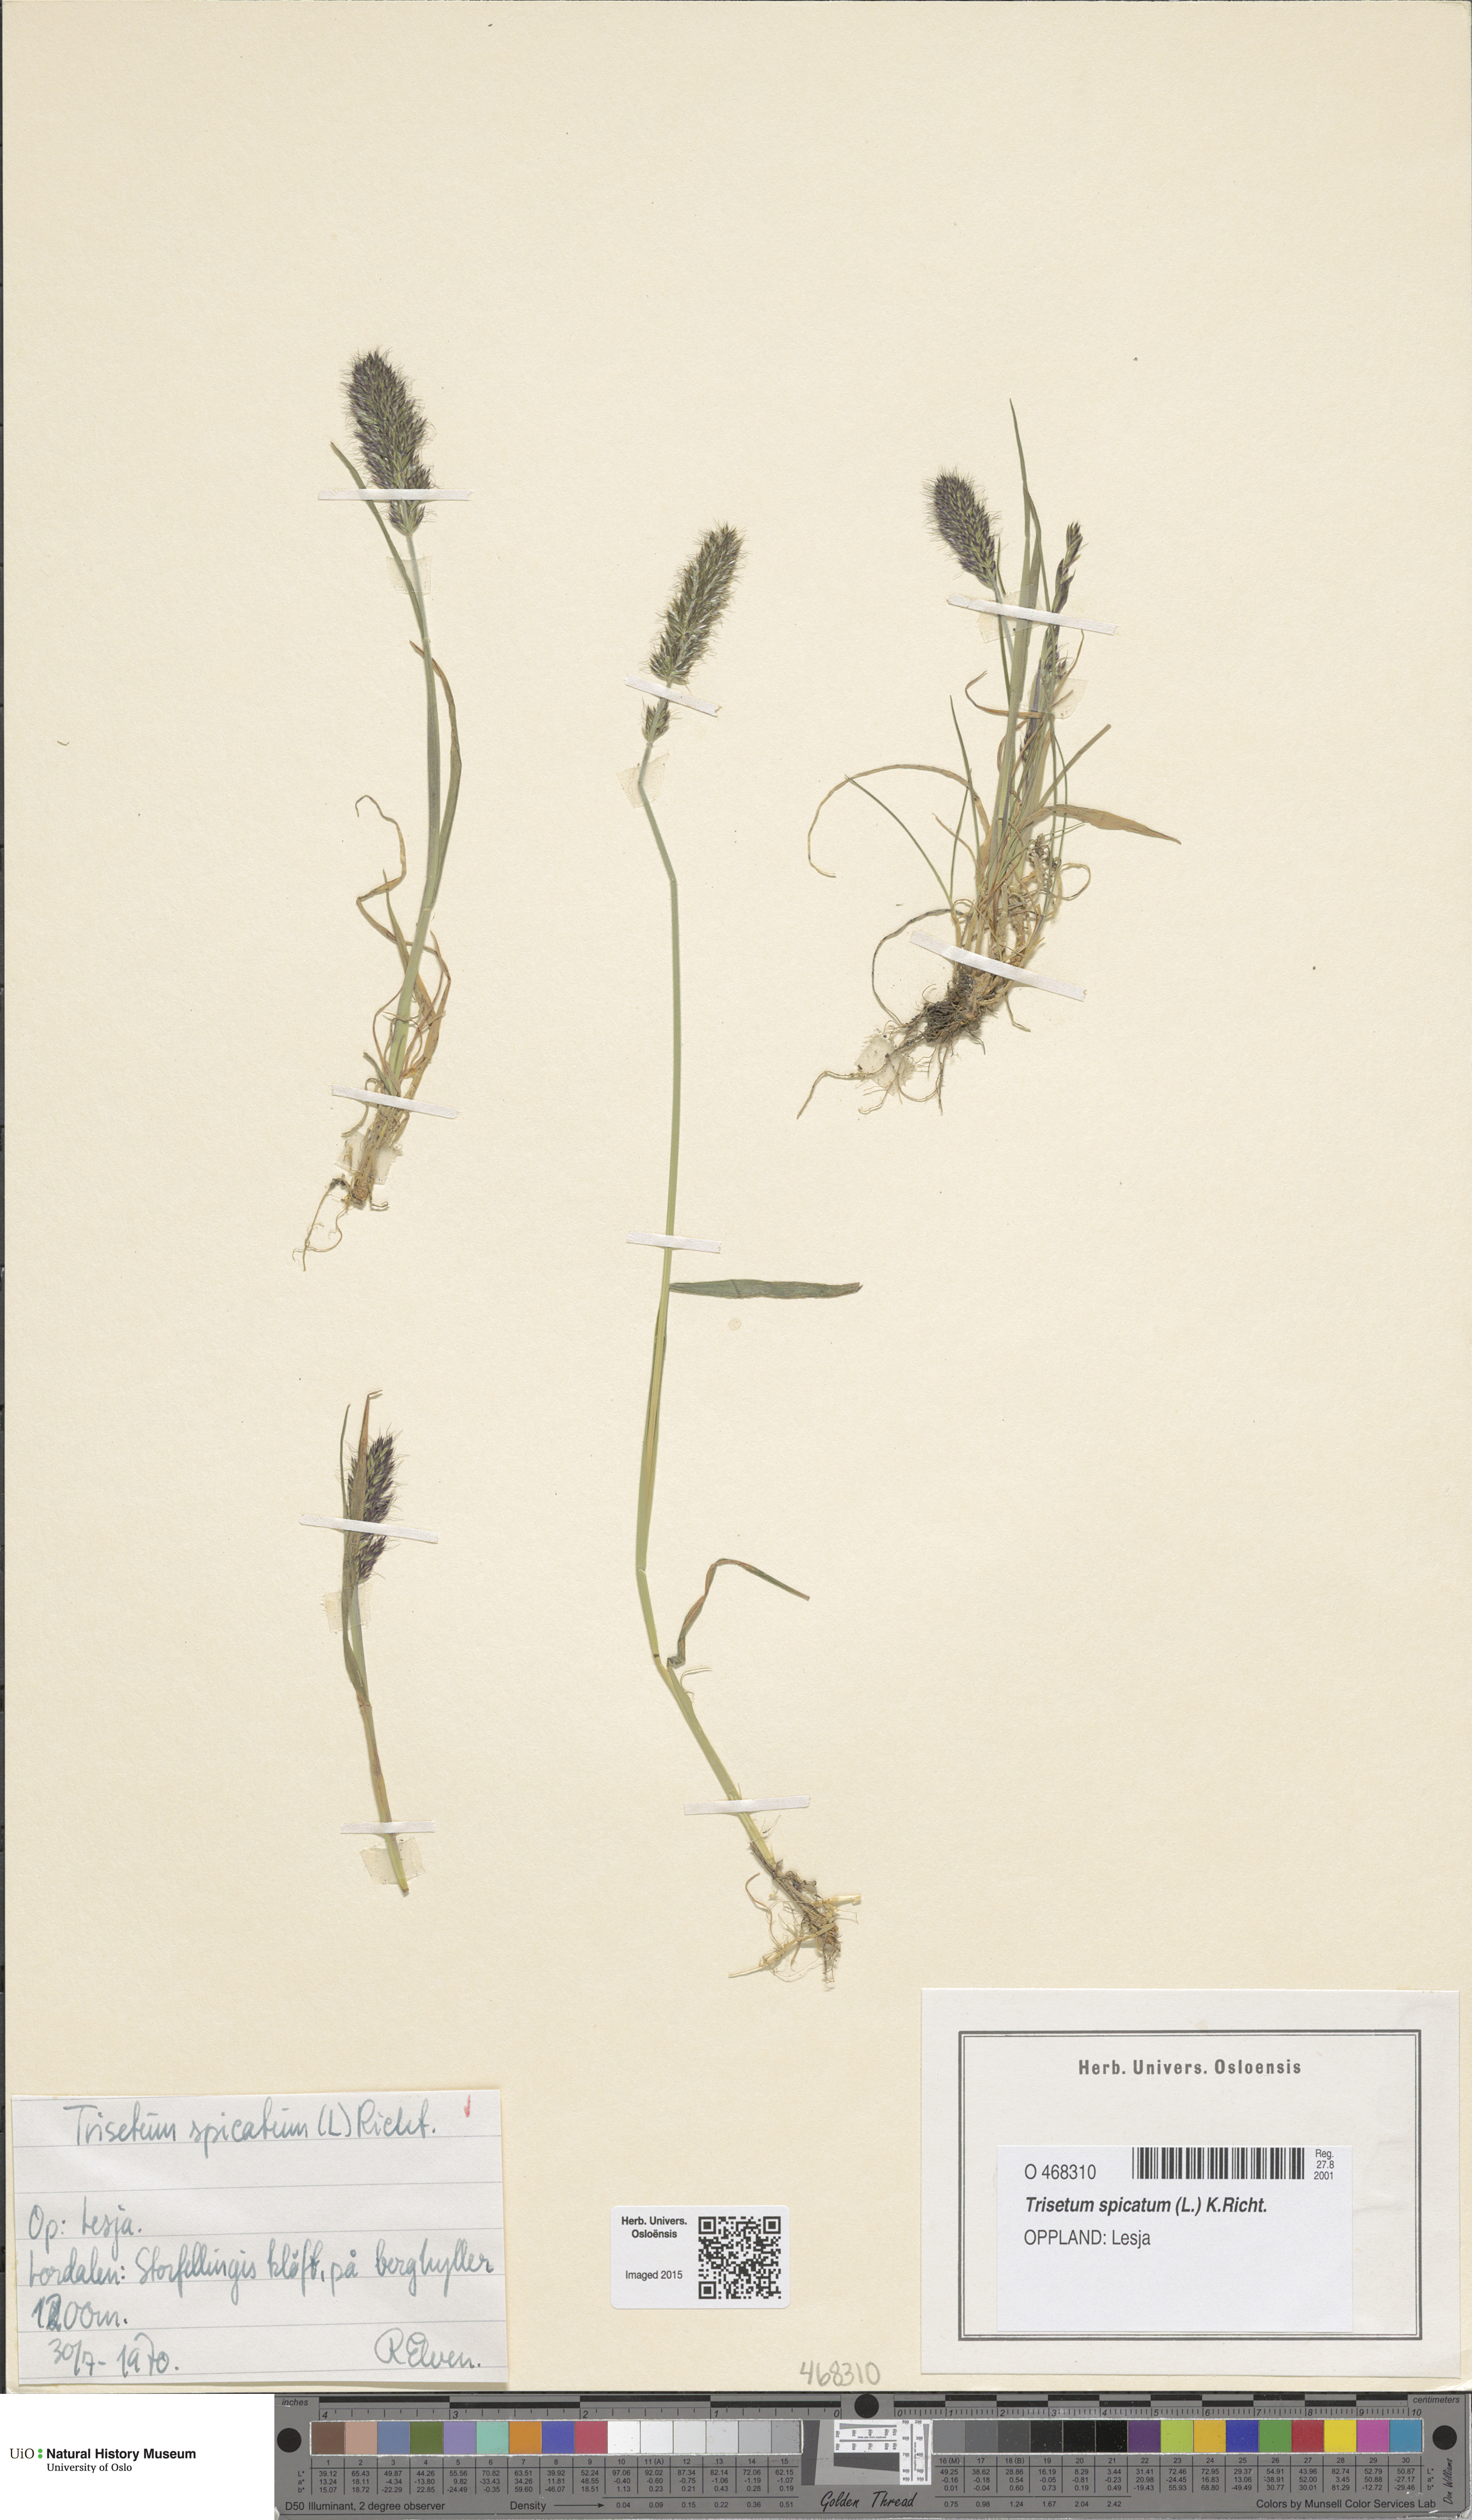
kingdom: Plantae
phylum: Tracheophyta
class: Liliopsida
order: Poales
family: Poaceae
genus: Koeleria
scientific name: Koeleria spicata
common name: Mountain trisetum
